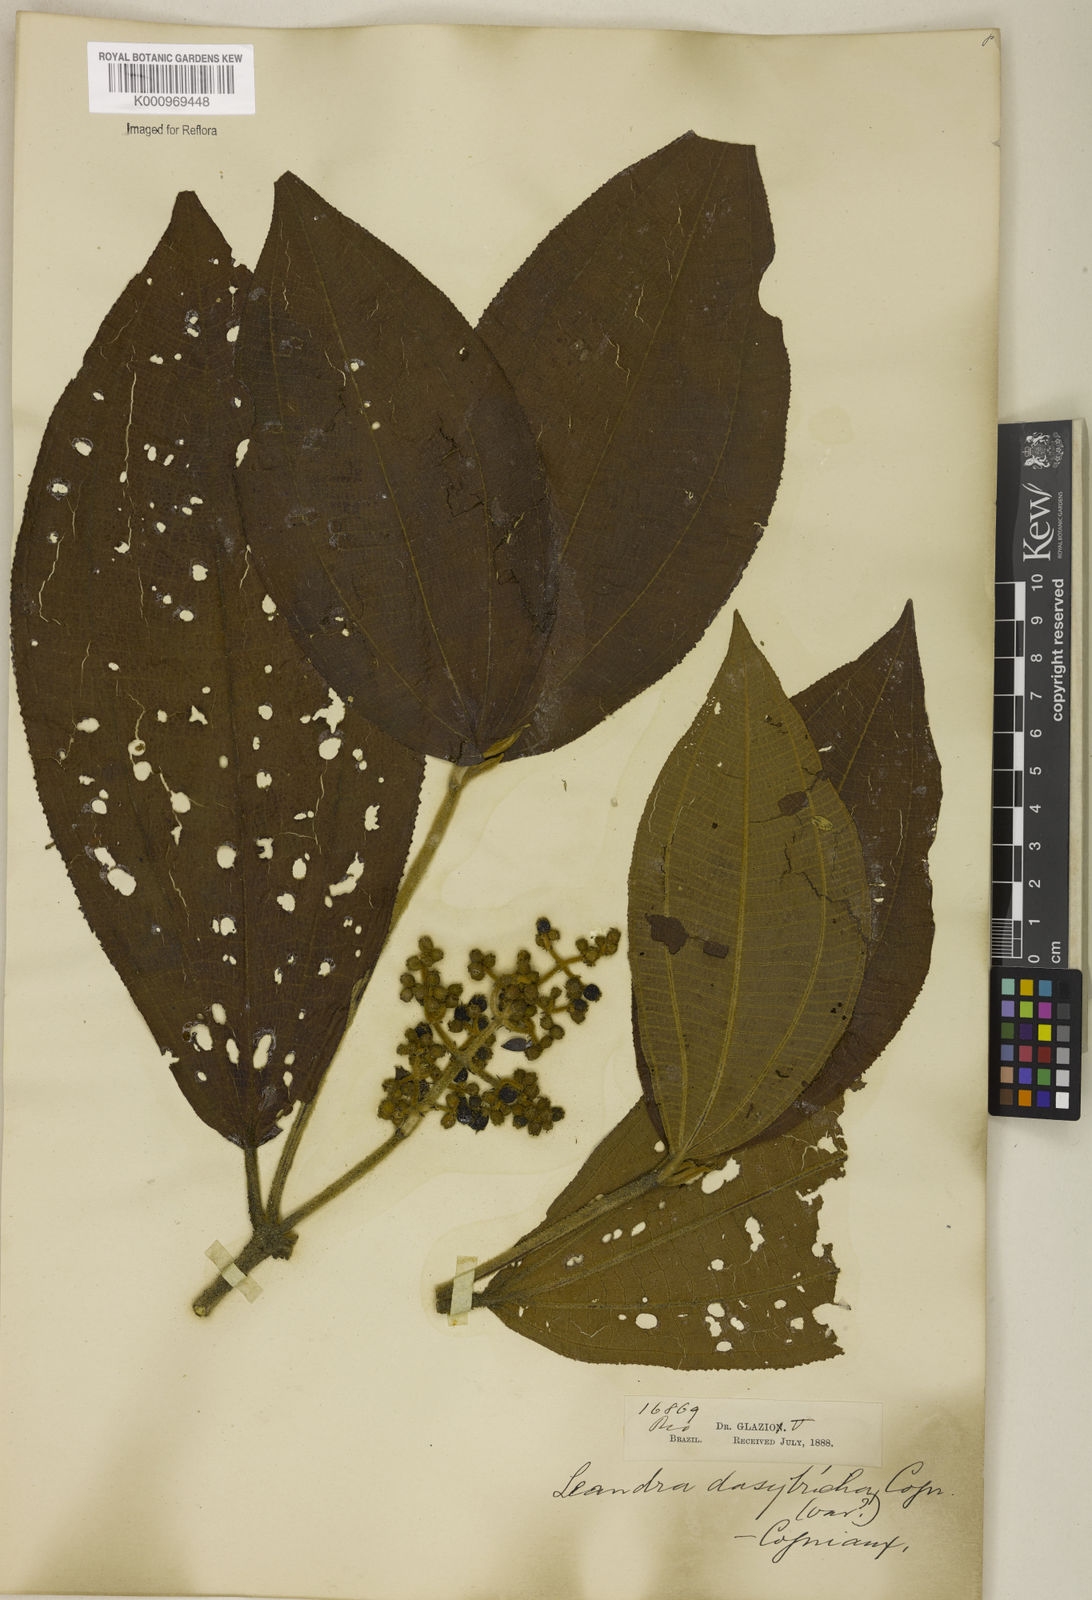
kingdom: Plantae
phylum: Tracheophyta
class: Magnoliopsida
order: Myrtales
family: Melastomataceae
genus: Miconia
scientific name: Miconia dasytricha
